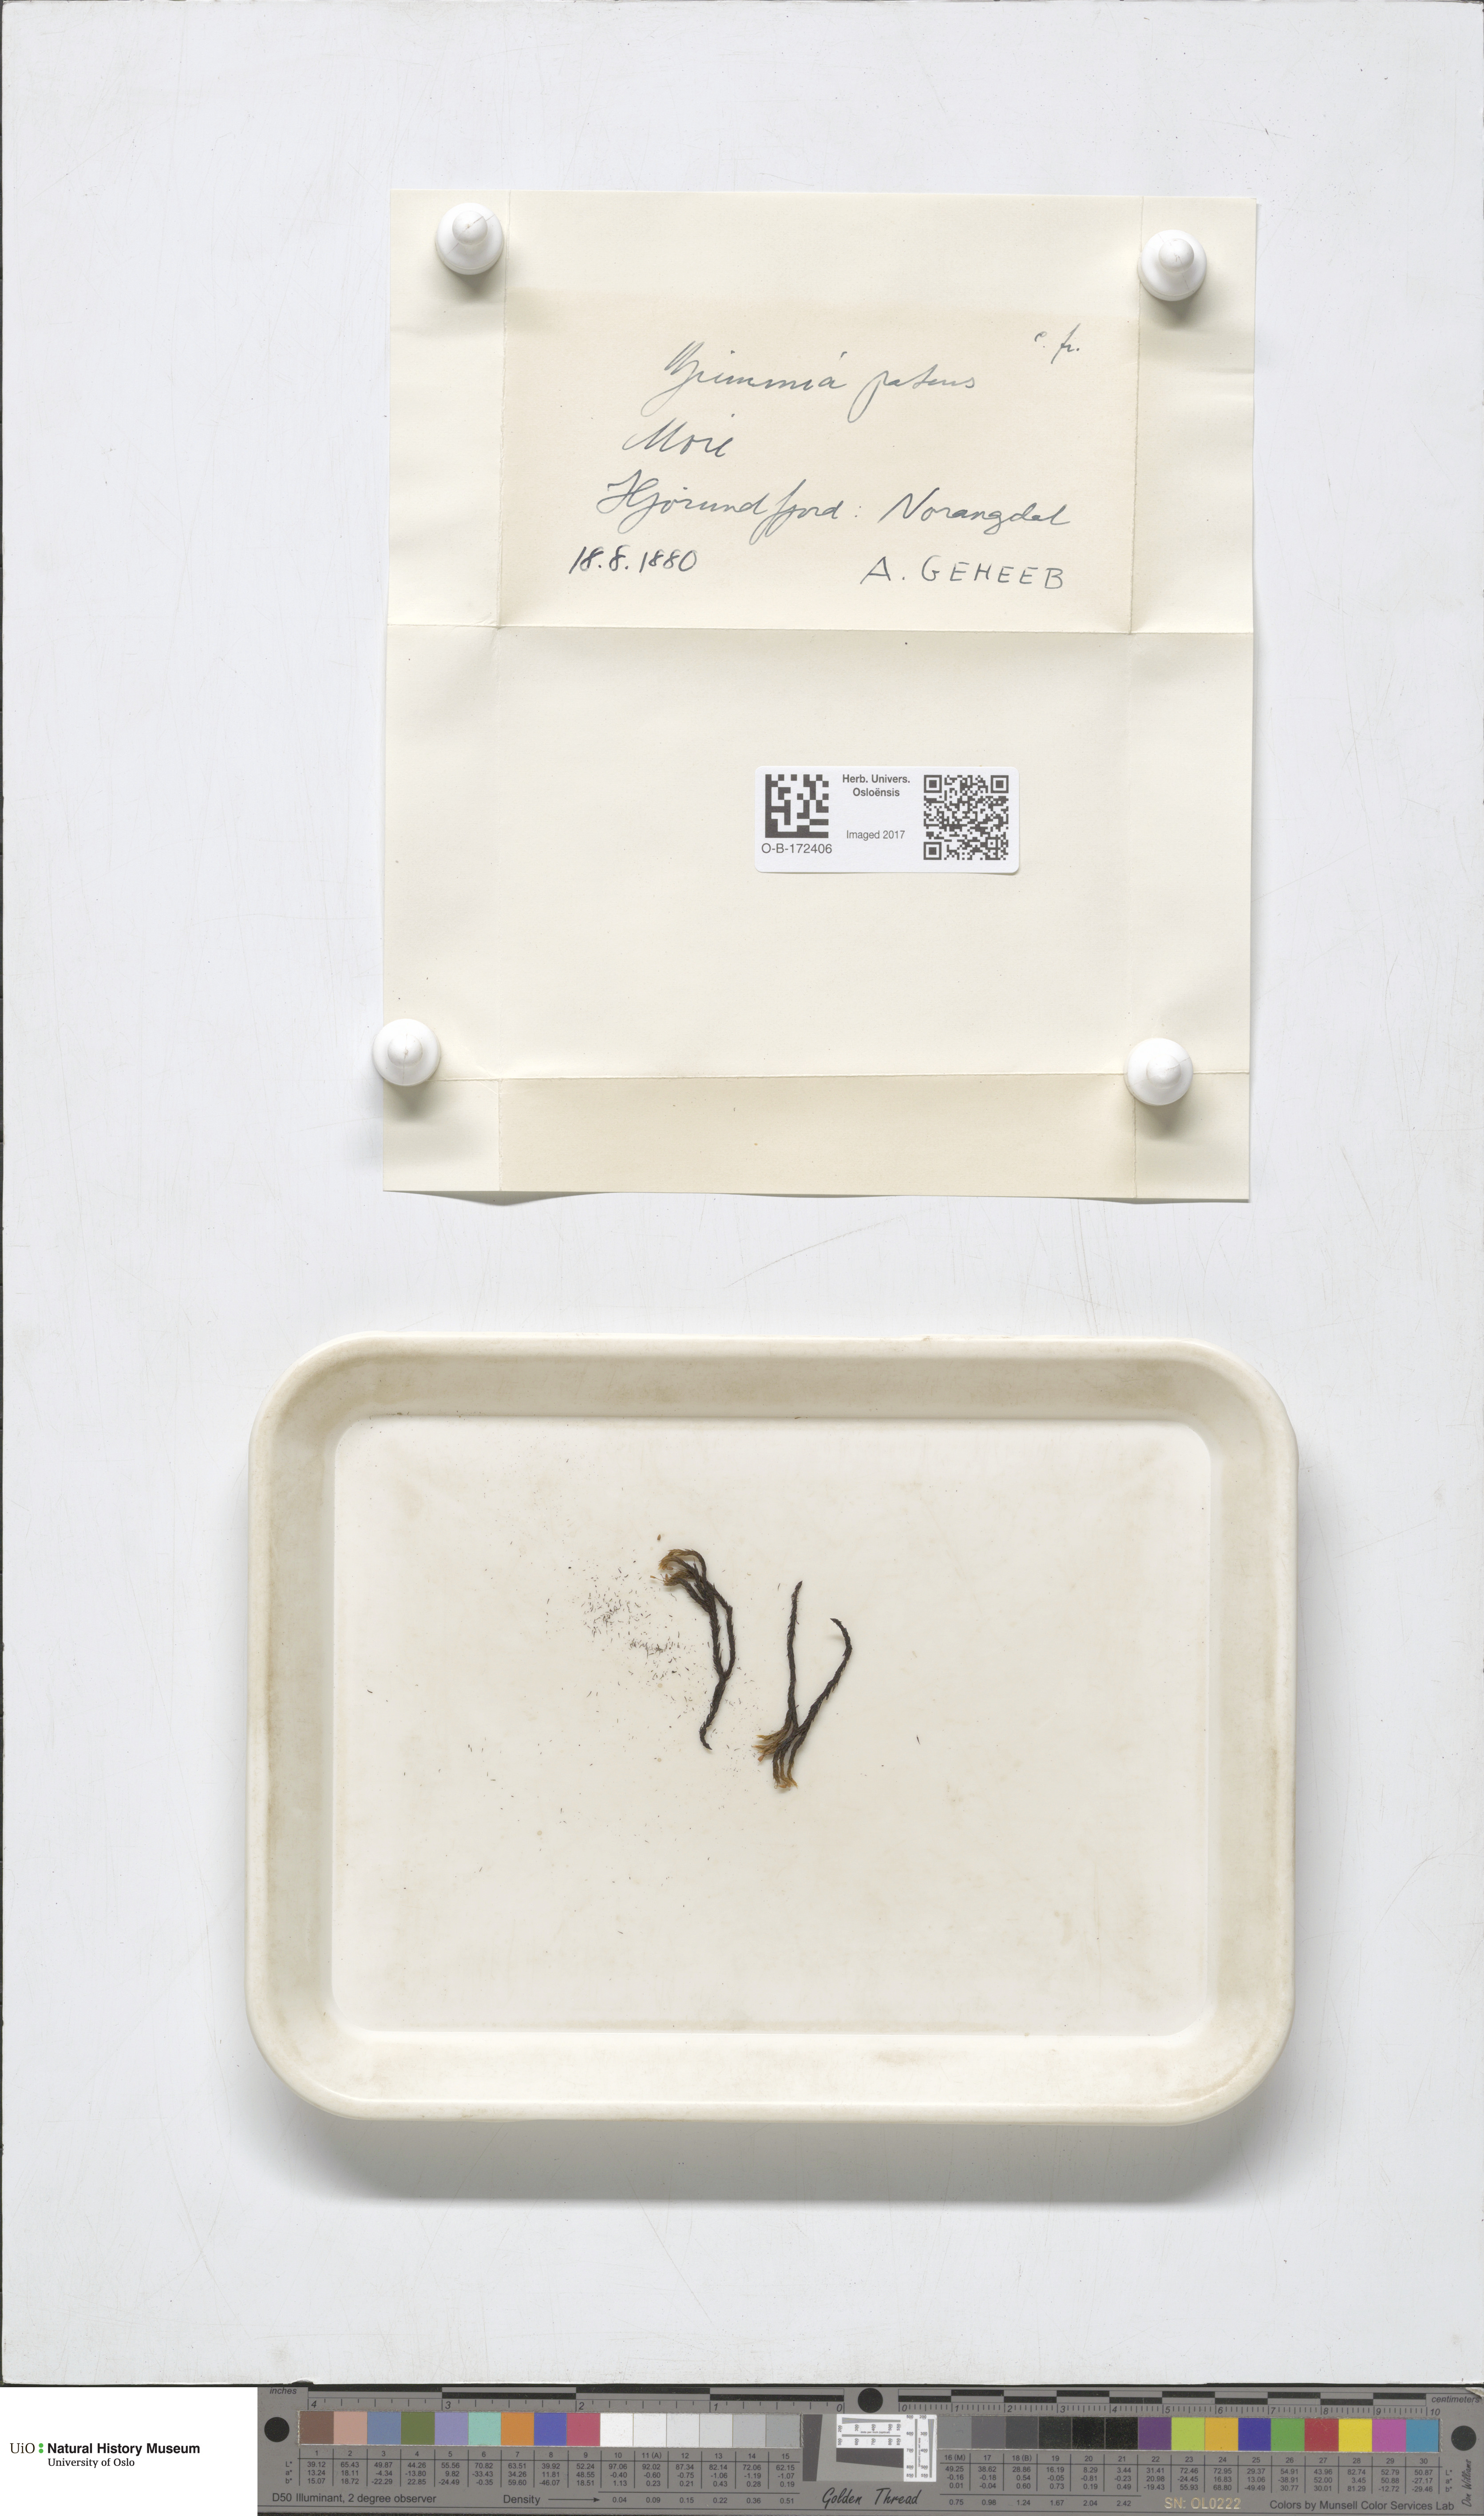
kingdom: Plantae
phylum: Bryophyta
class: Bryopsida
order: Grimmiales
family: Grimmiaceae
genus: Grimmia
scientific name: Grimmia ramondii
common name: Spreading-leaved grimmia
